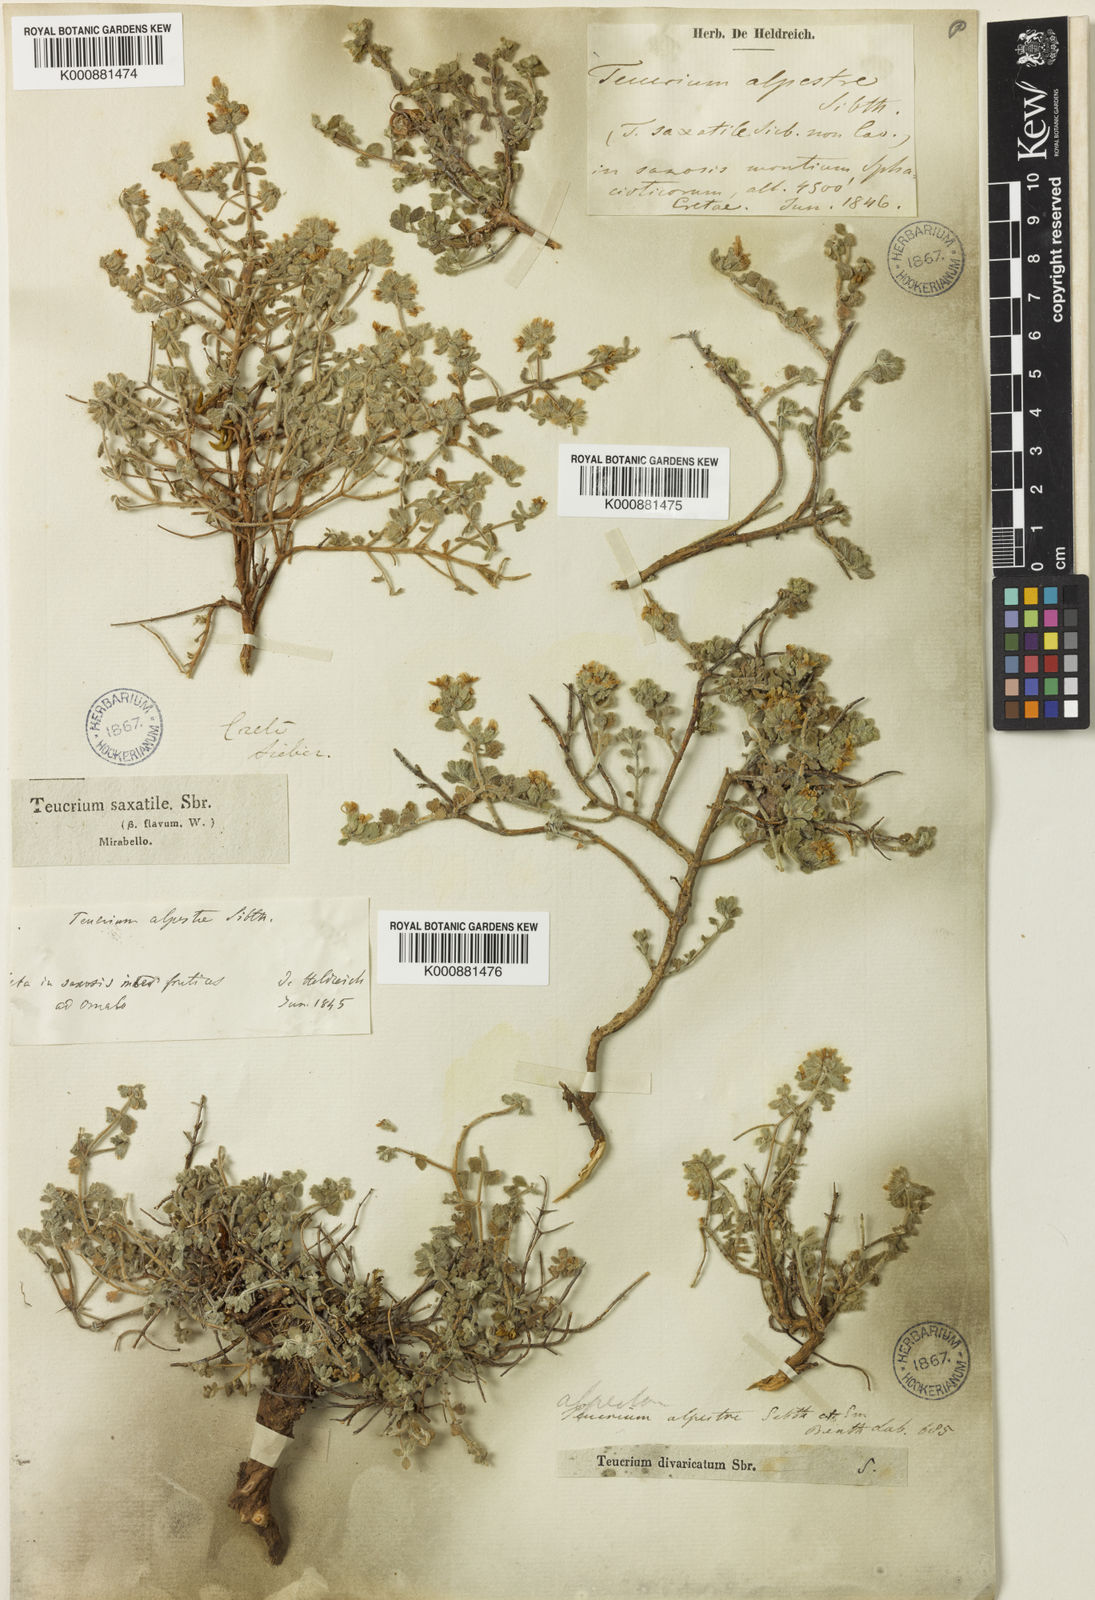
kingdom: Plantae
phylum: Tracheophyta
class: Magnoliopsida
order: Lamiales
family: Lamiaceae
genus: Teucrium
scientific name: Teucrium alpestre
